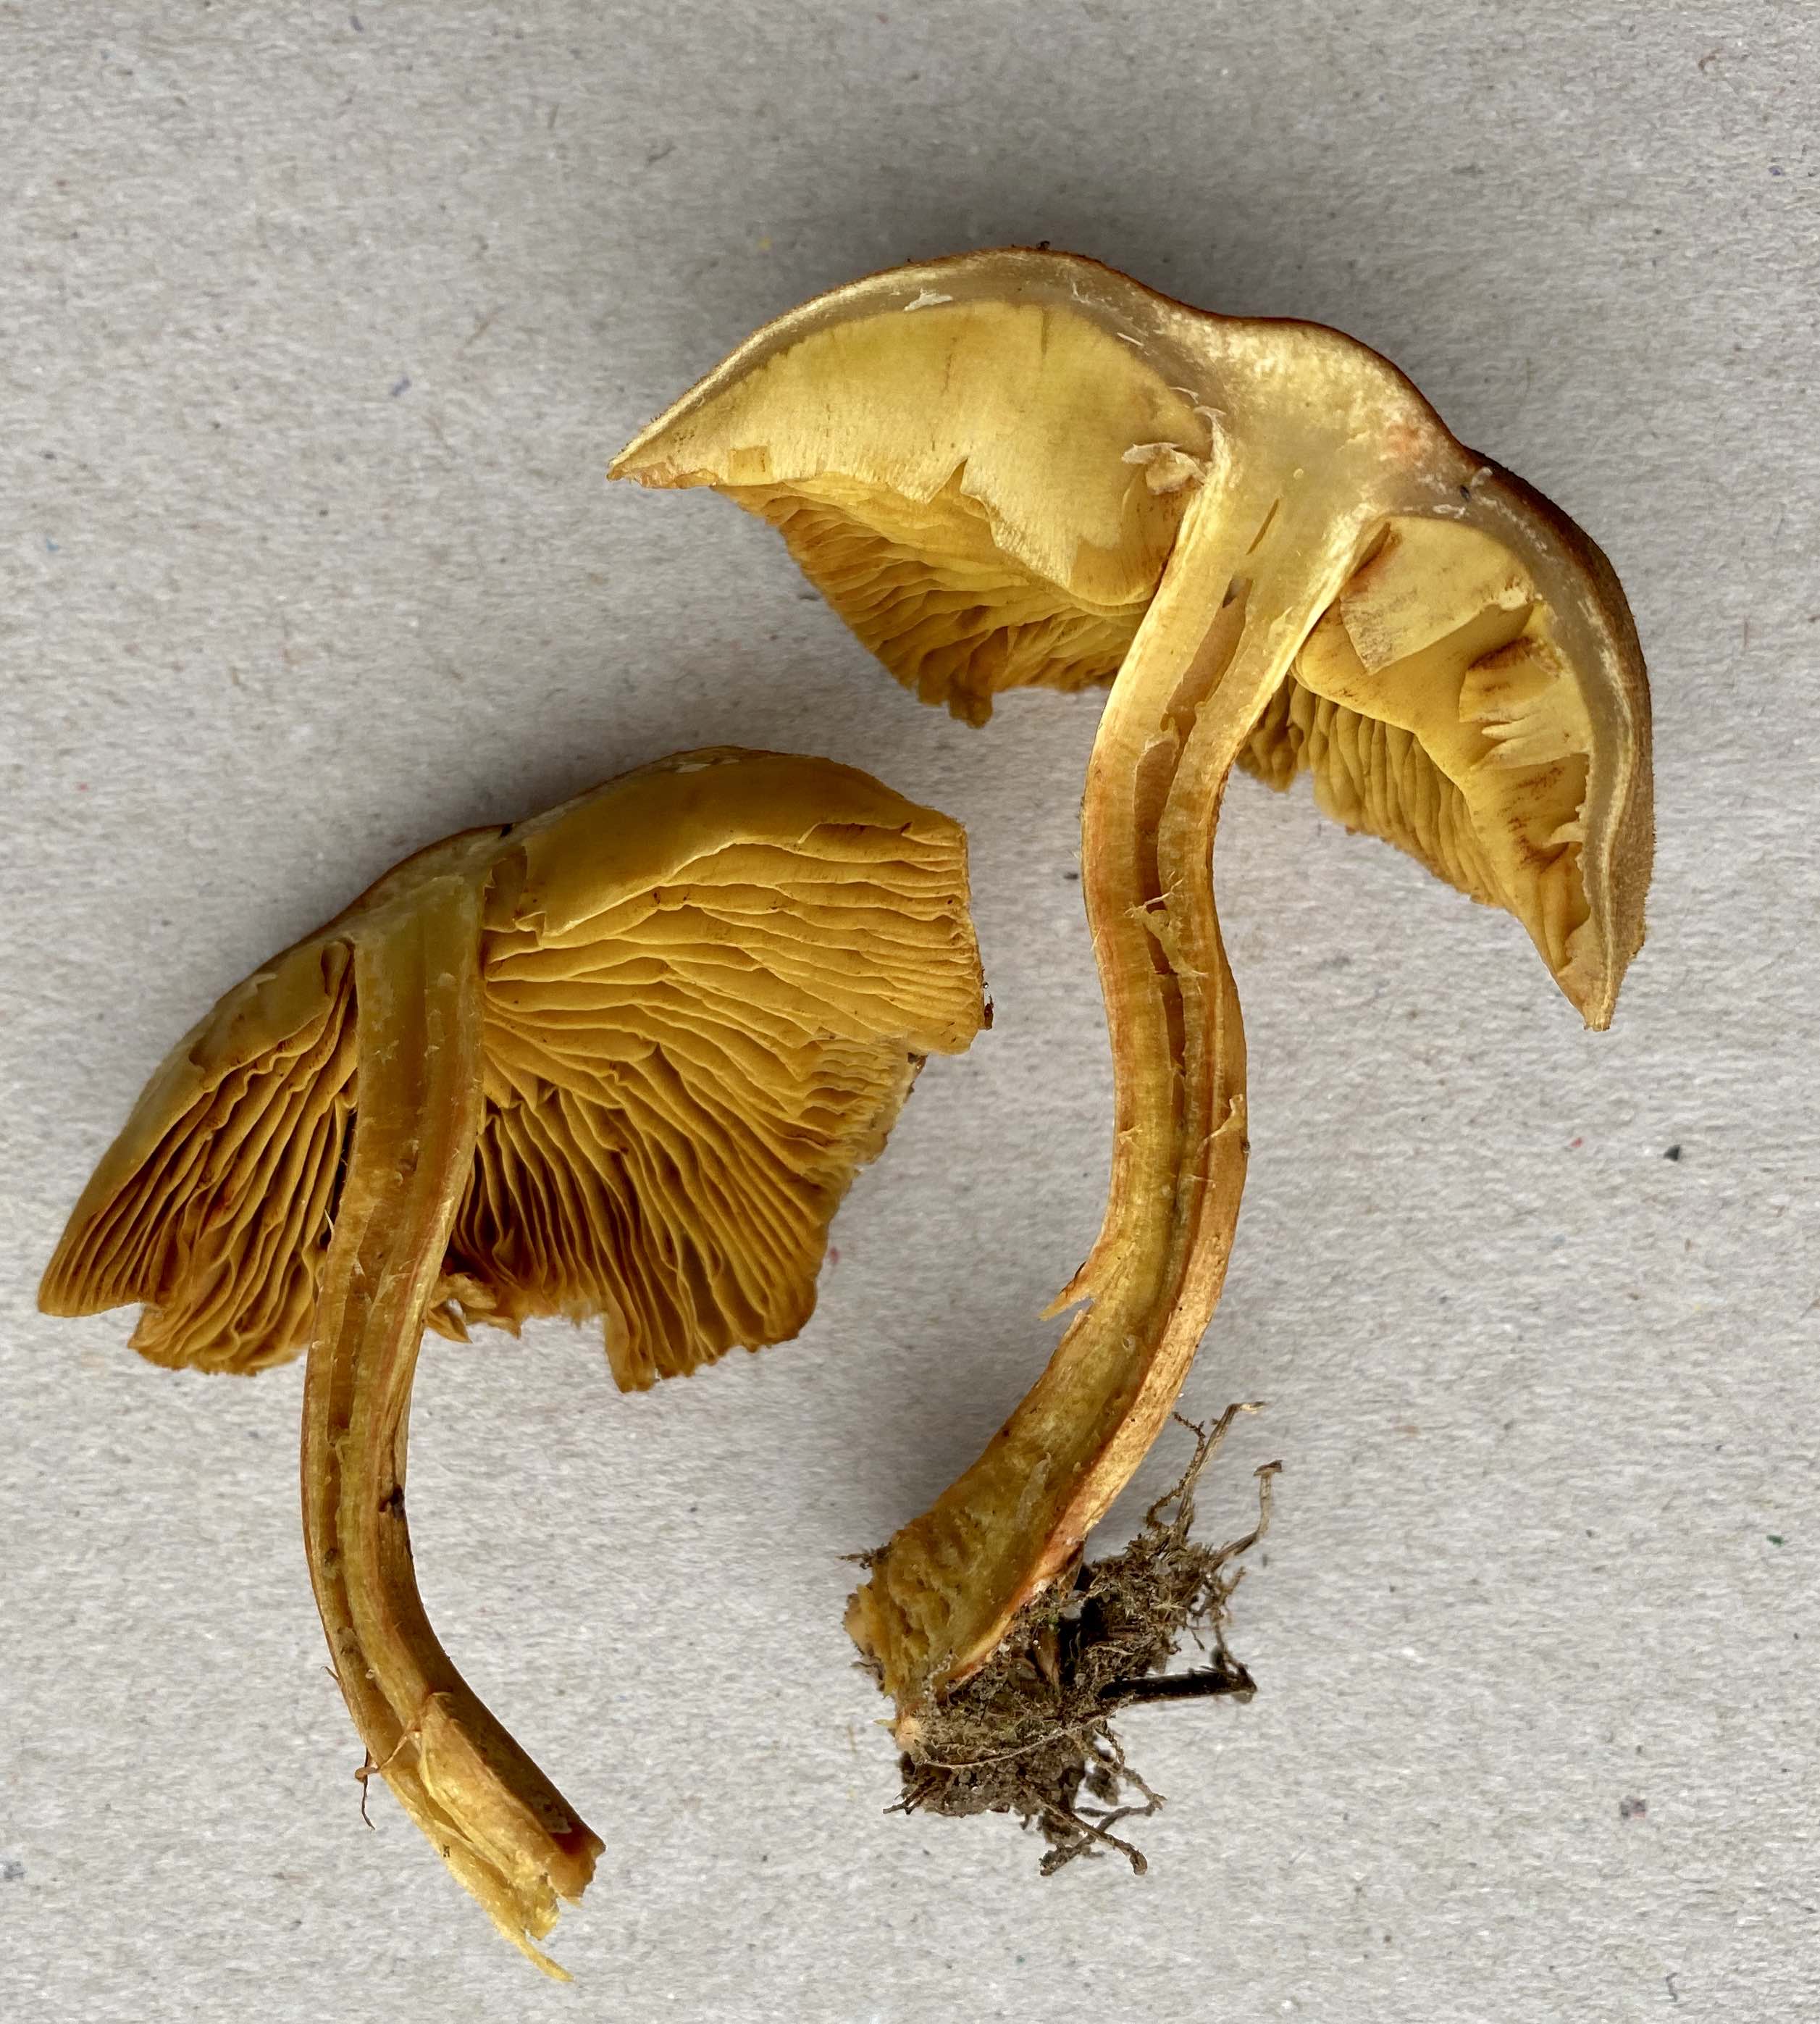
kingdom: Fungi
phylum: Basidiomycota
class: Agaricomycetes
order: Agaricales
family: Cortinariaceae
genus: Cortinarius
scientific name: Cortinarius
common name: gulbladet slørhat
